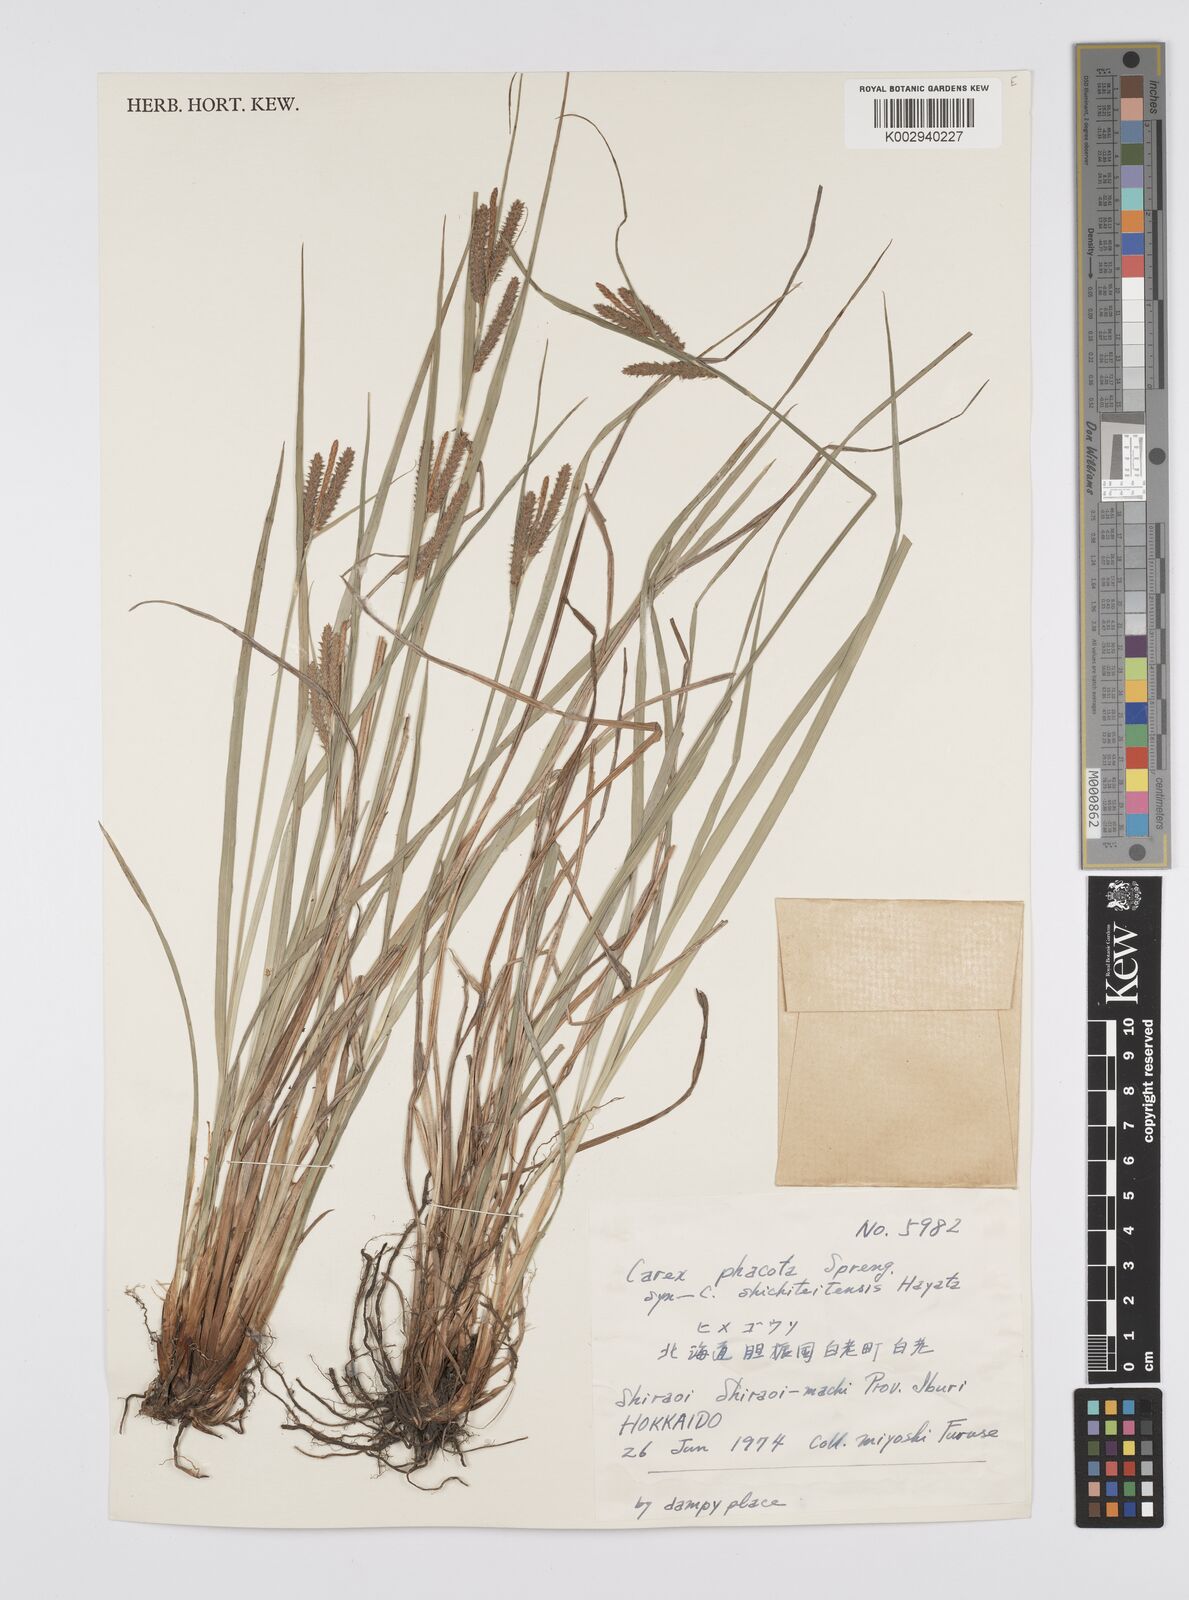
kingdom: Plantae
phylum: Tracheophyta
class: Liliopsida
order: Poales
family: Cyperaceae
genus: Carex
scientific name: Carex phacota
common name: Lakeshore sedge
